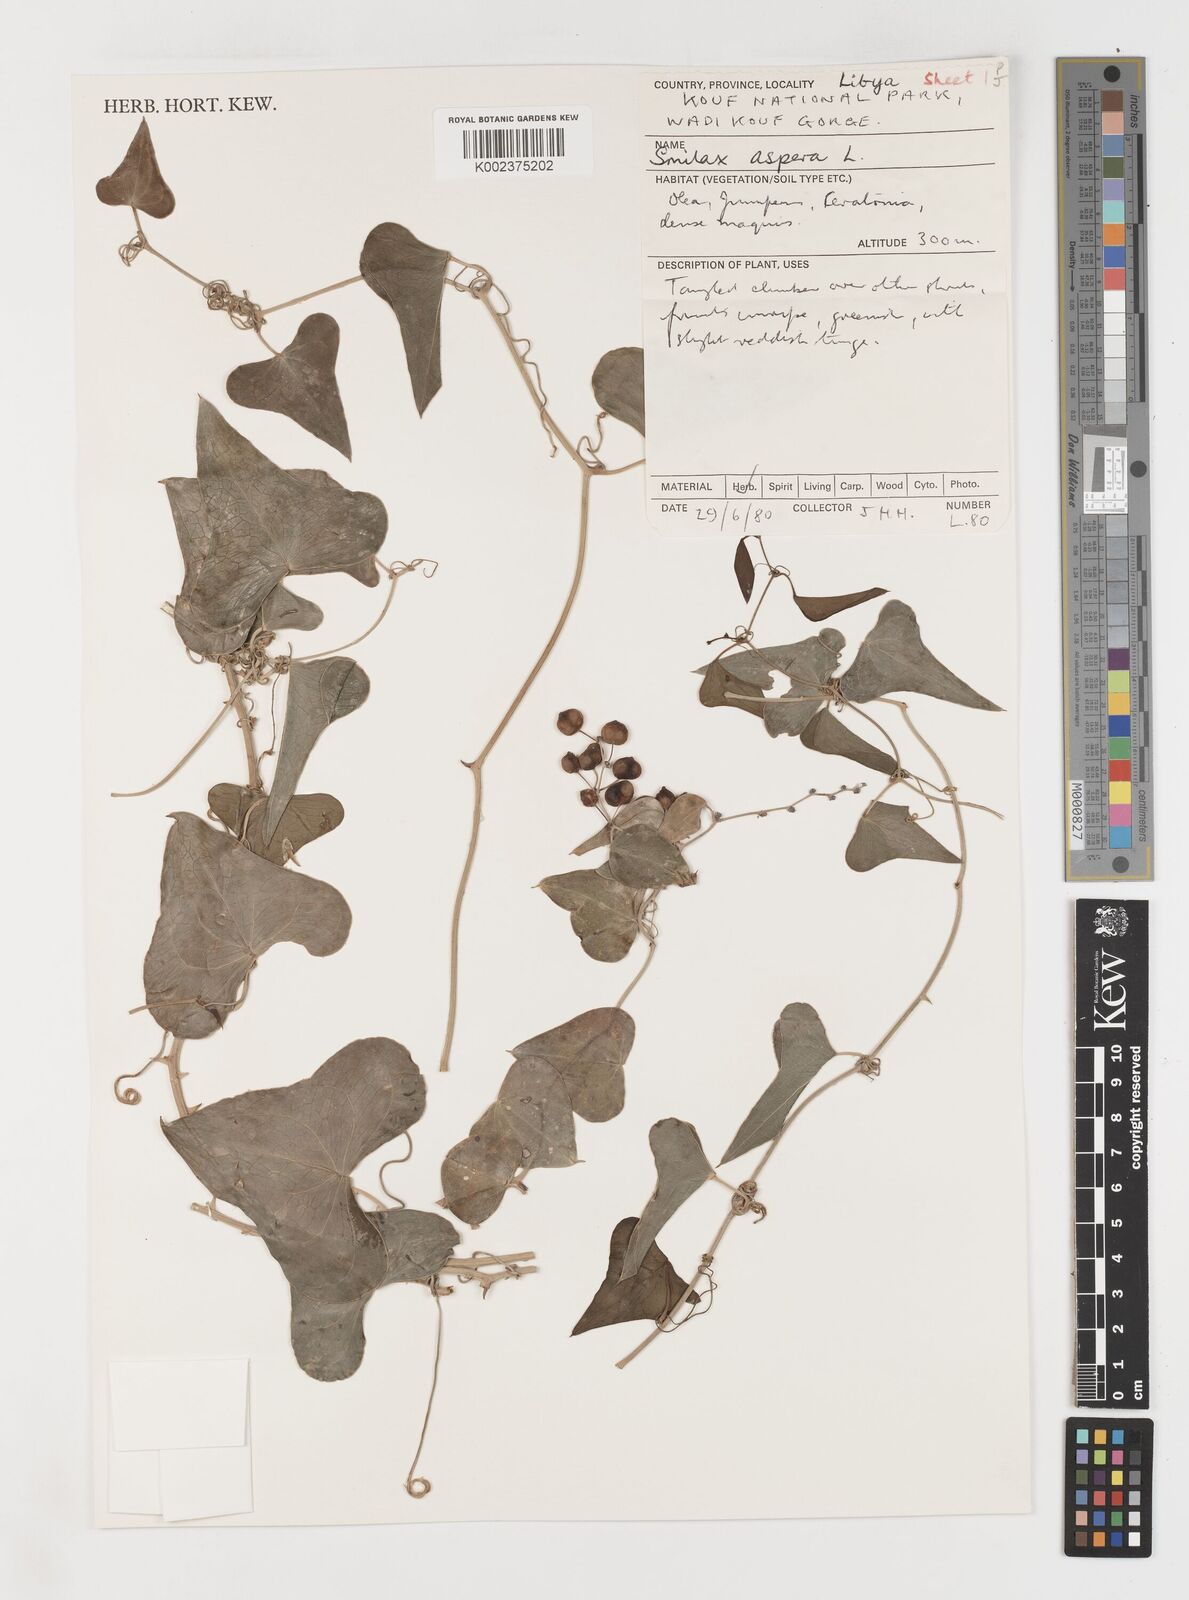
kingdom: Plantae
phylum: Tracheophyta
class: Liliopsida
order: Liliales
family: Smilacaceae
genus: Smilax
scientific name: Smilax aspera
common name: Common smilax
